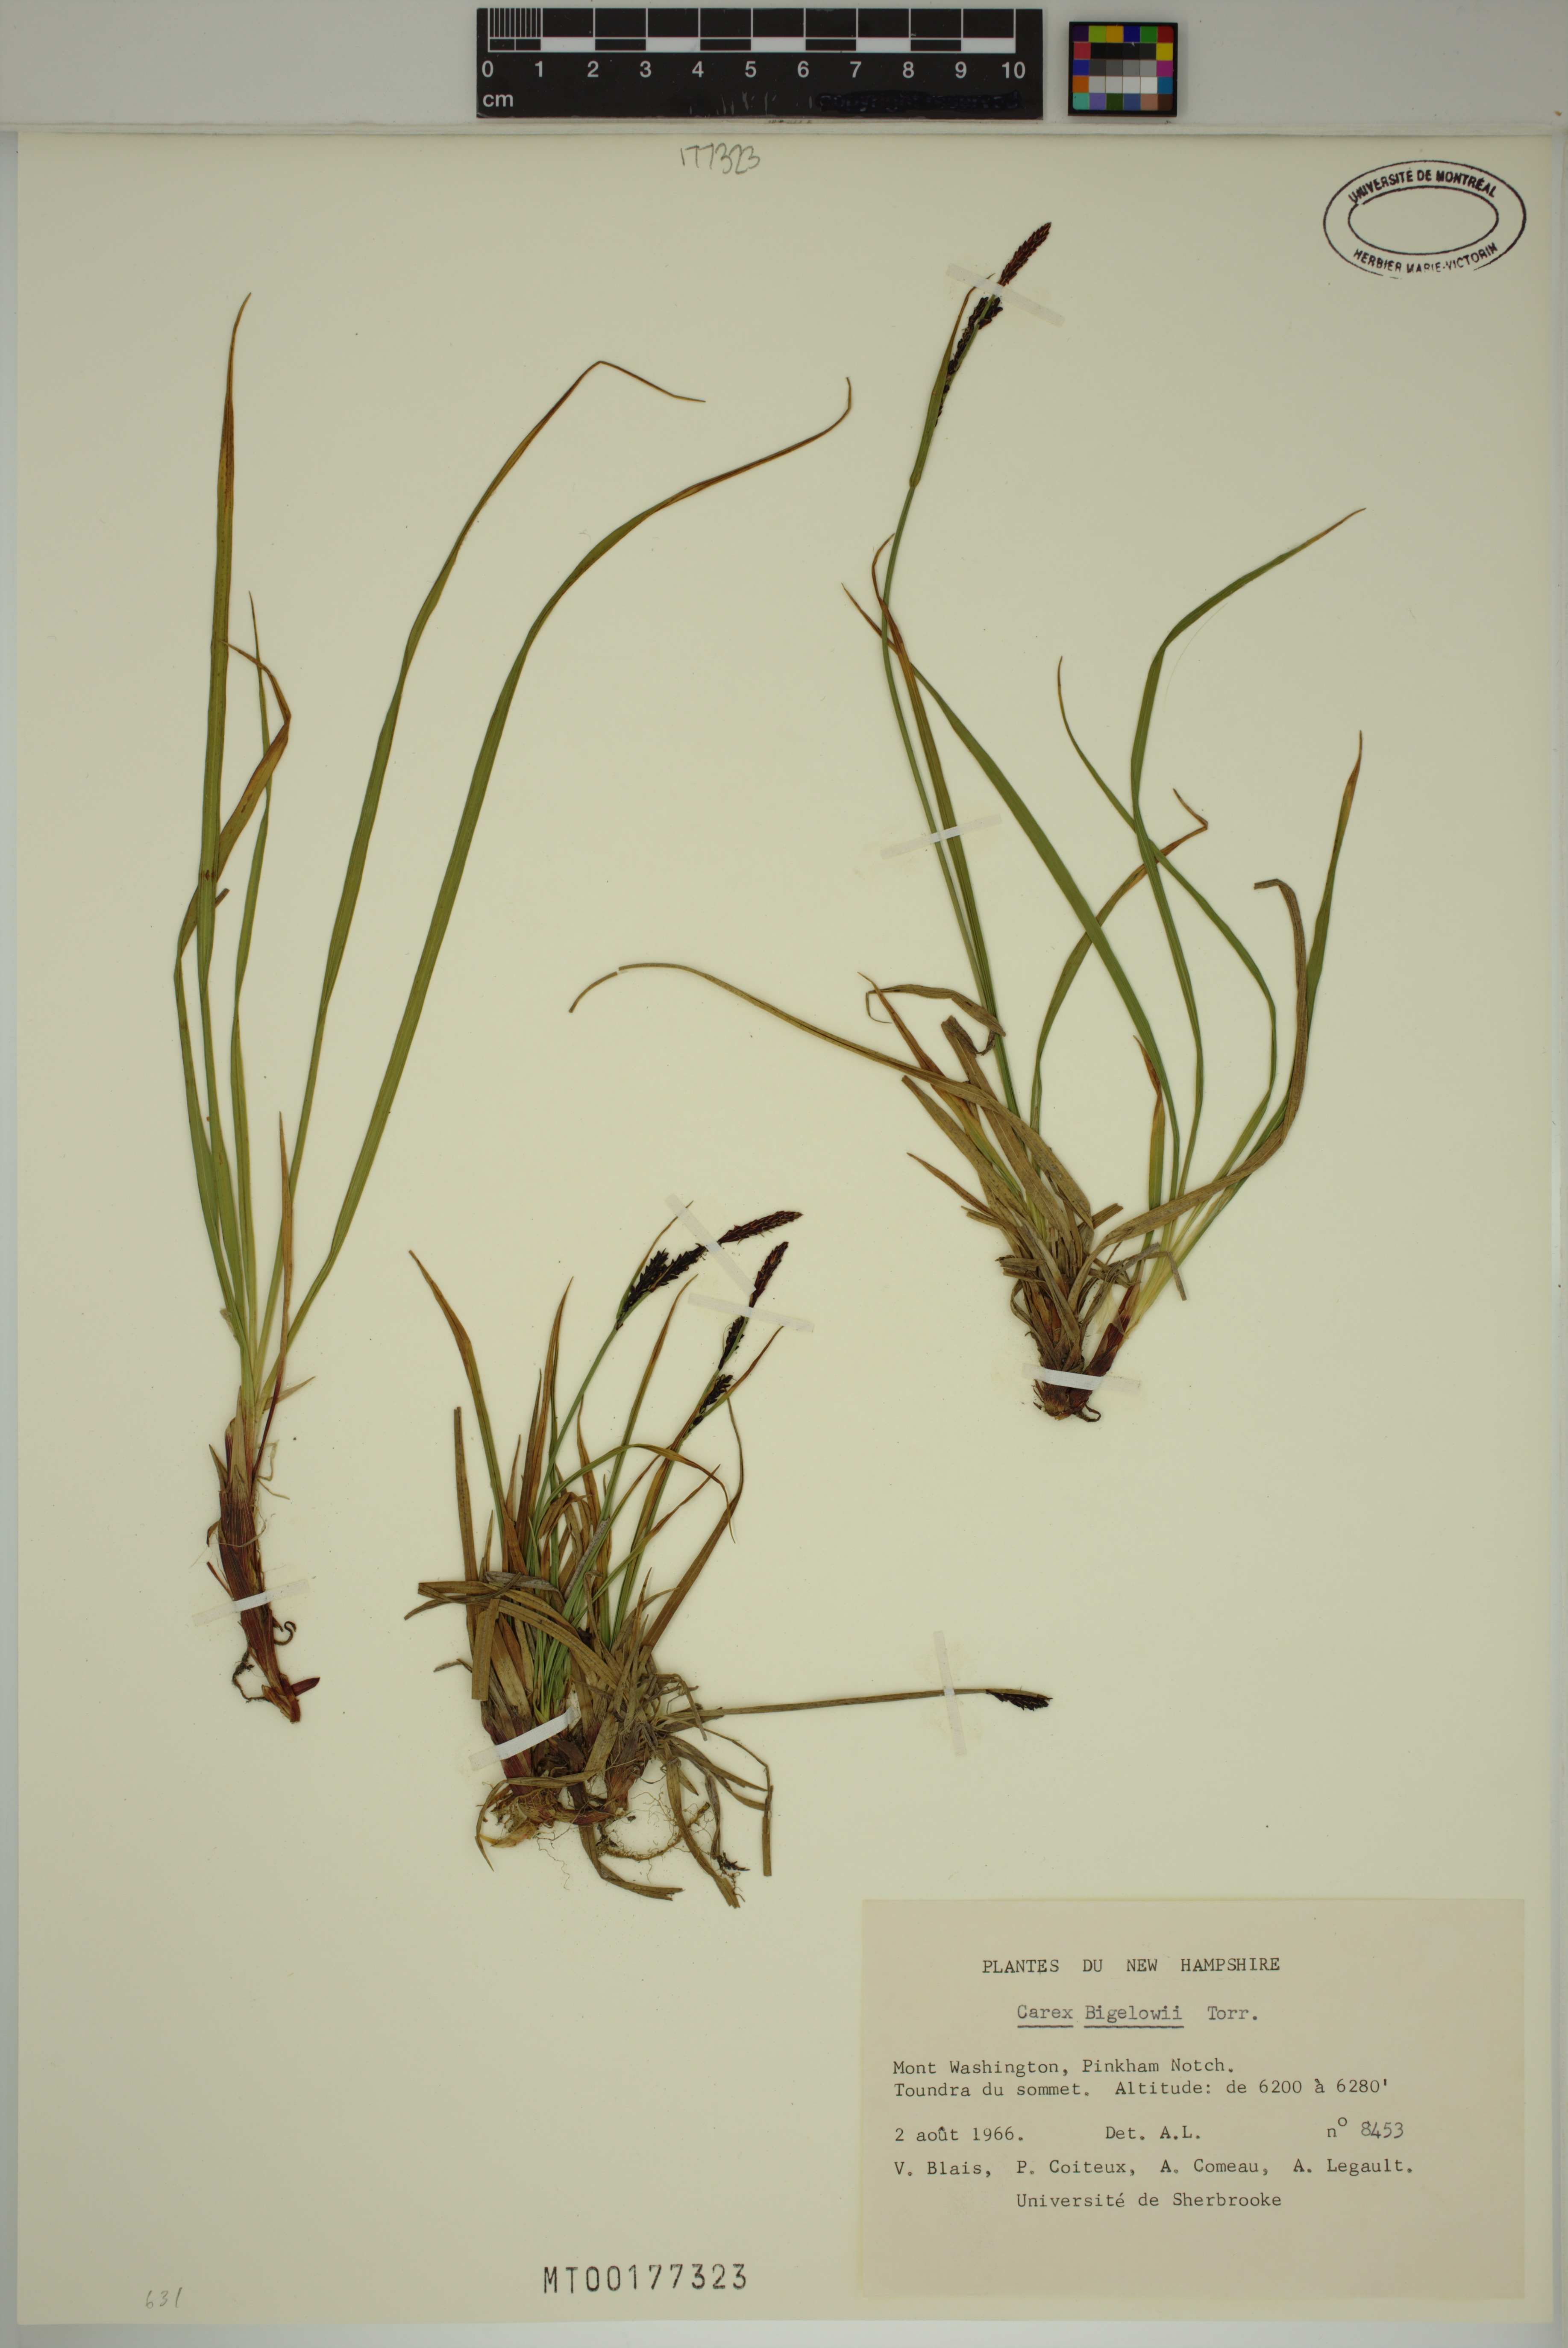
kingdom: Plantae
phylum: Tracheophyta
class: Liliopsida
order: Poales
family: Cyperaceae
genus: Carex
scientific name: Carex bigelowii
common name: Stiff sedge
